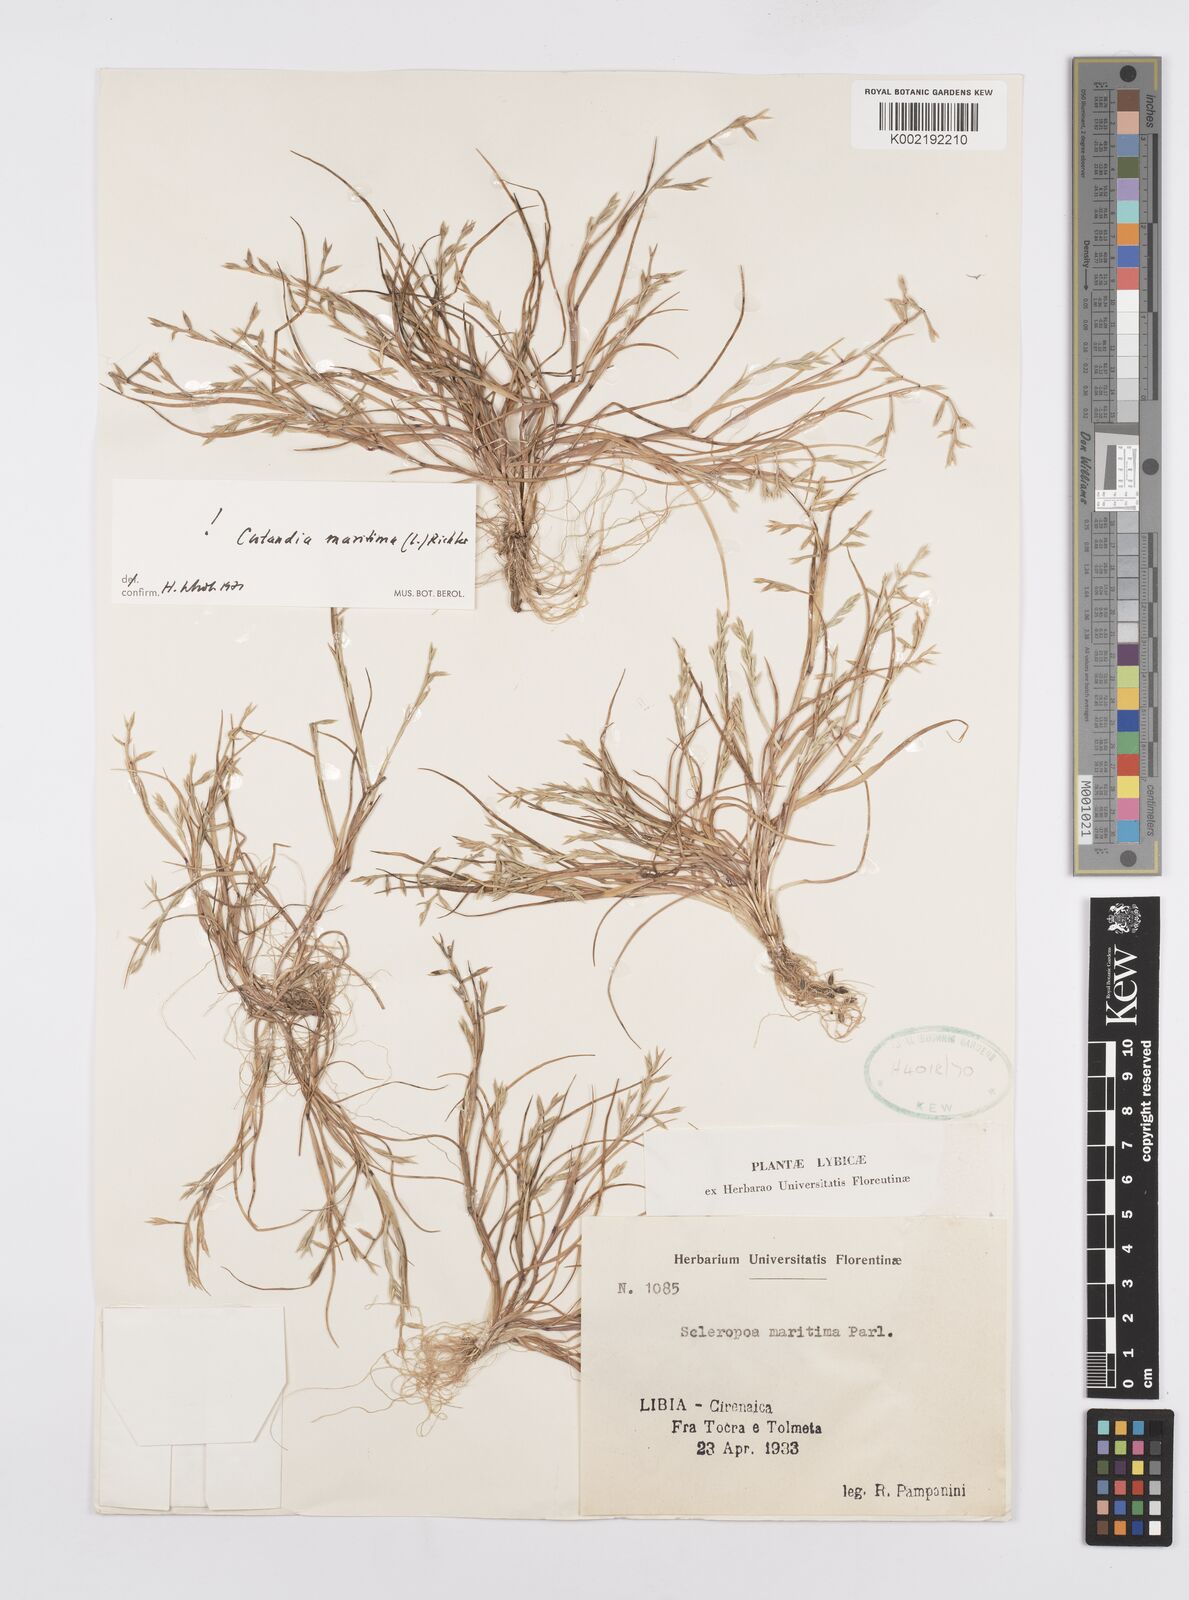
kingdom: Plantae
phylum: Tracheophyta
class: Liliopsida
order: Poales
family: Poaceae
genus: Cutandia
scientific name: Cutandia maritima
